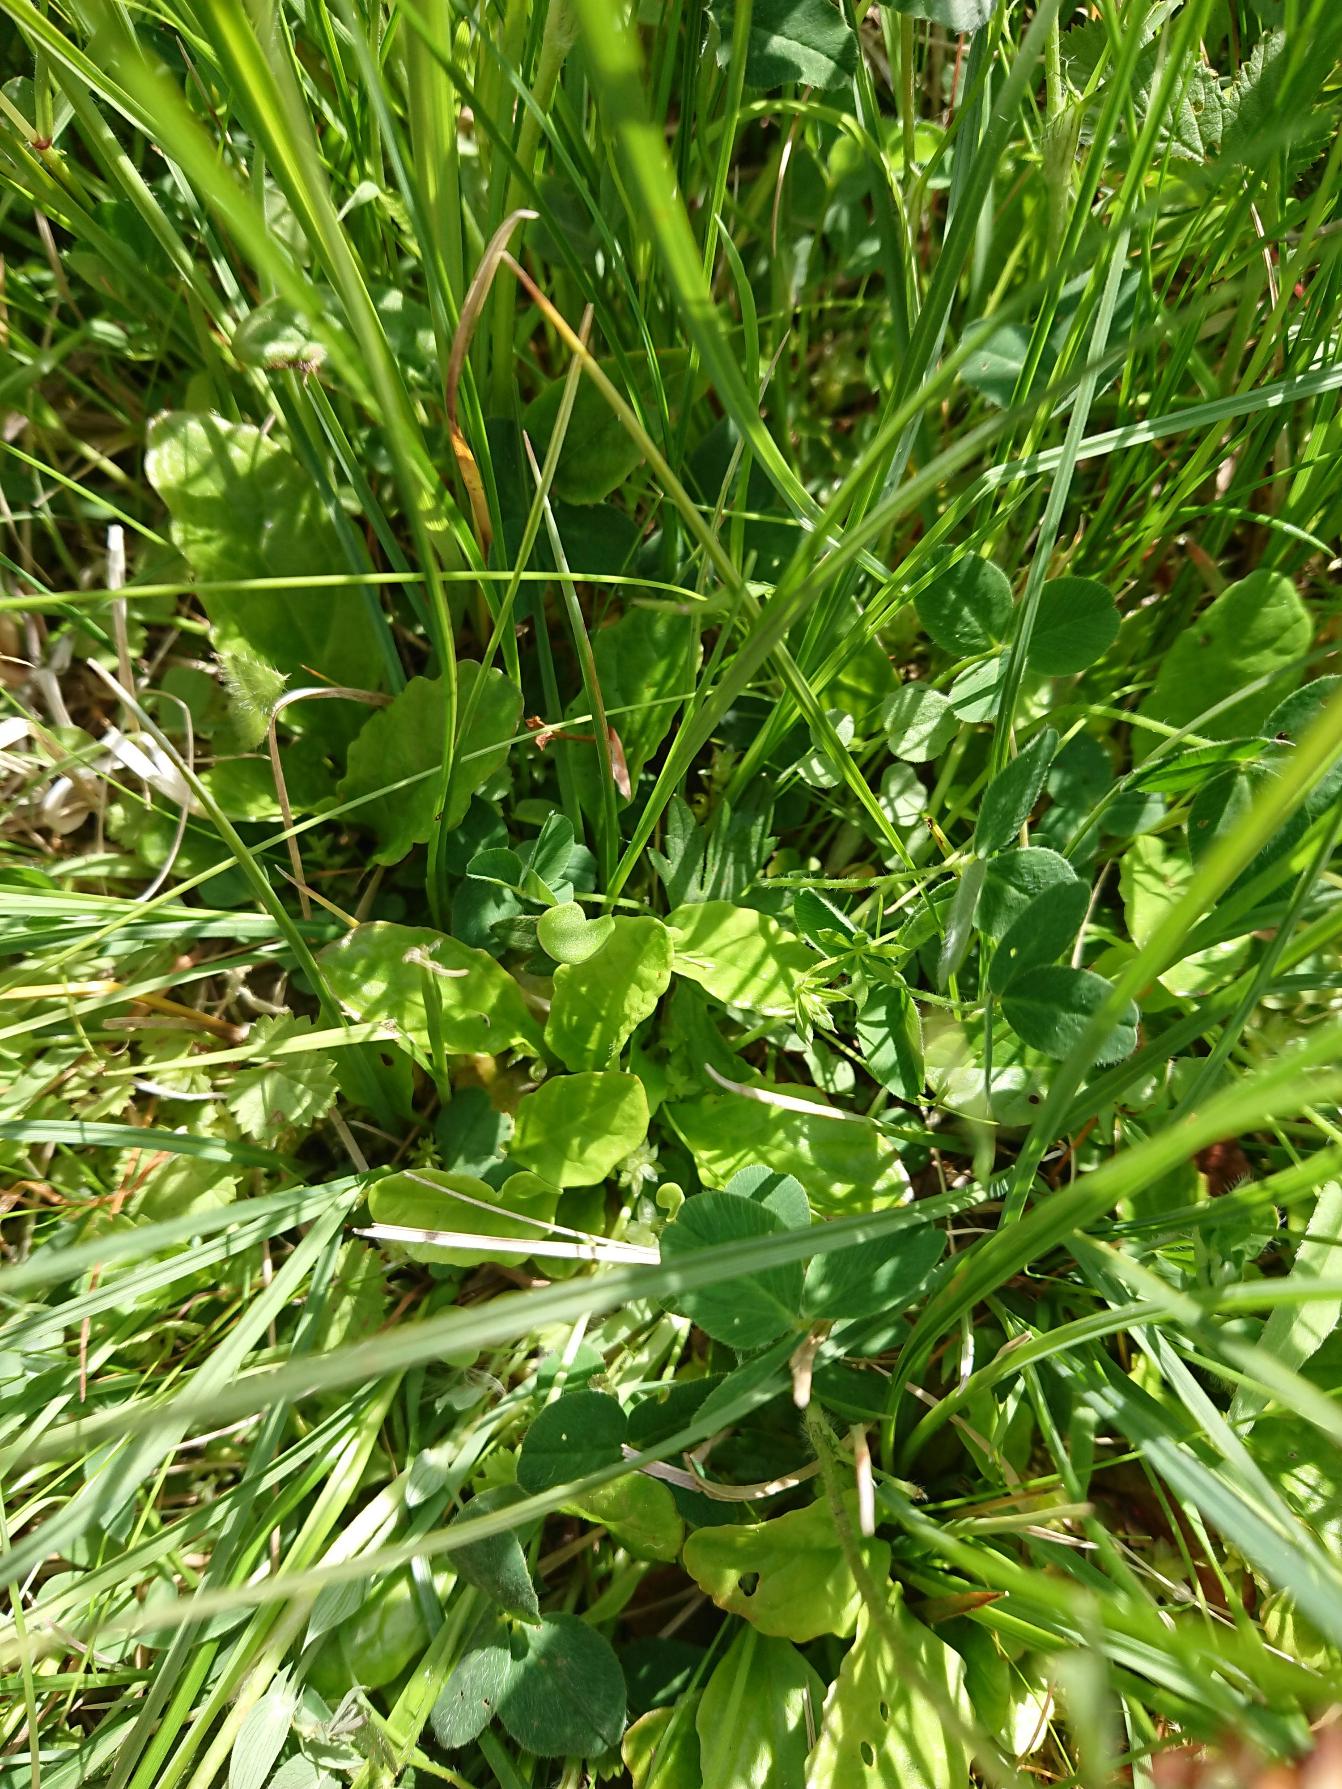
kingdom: Plantae
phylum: Tracheophyta
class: Magnoliopsida
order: Lamiales
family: Lamiaceae
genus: Ajuga
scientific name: Ajuga reptans
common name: Krybende læbeløs
